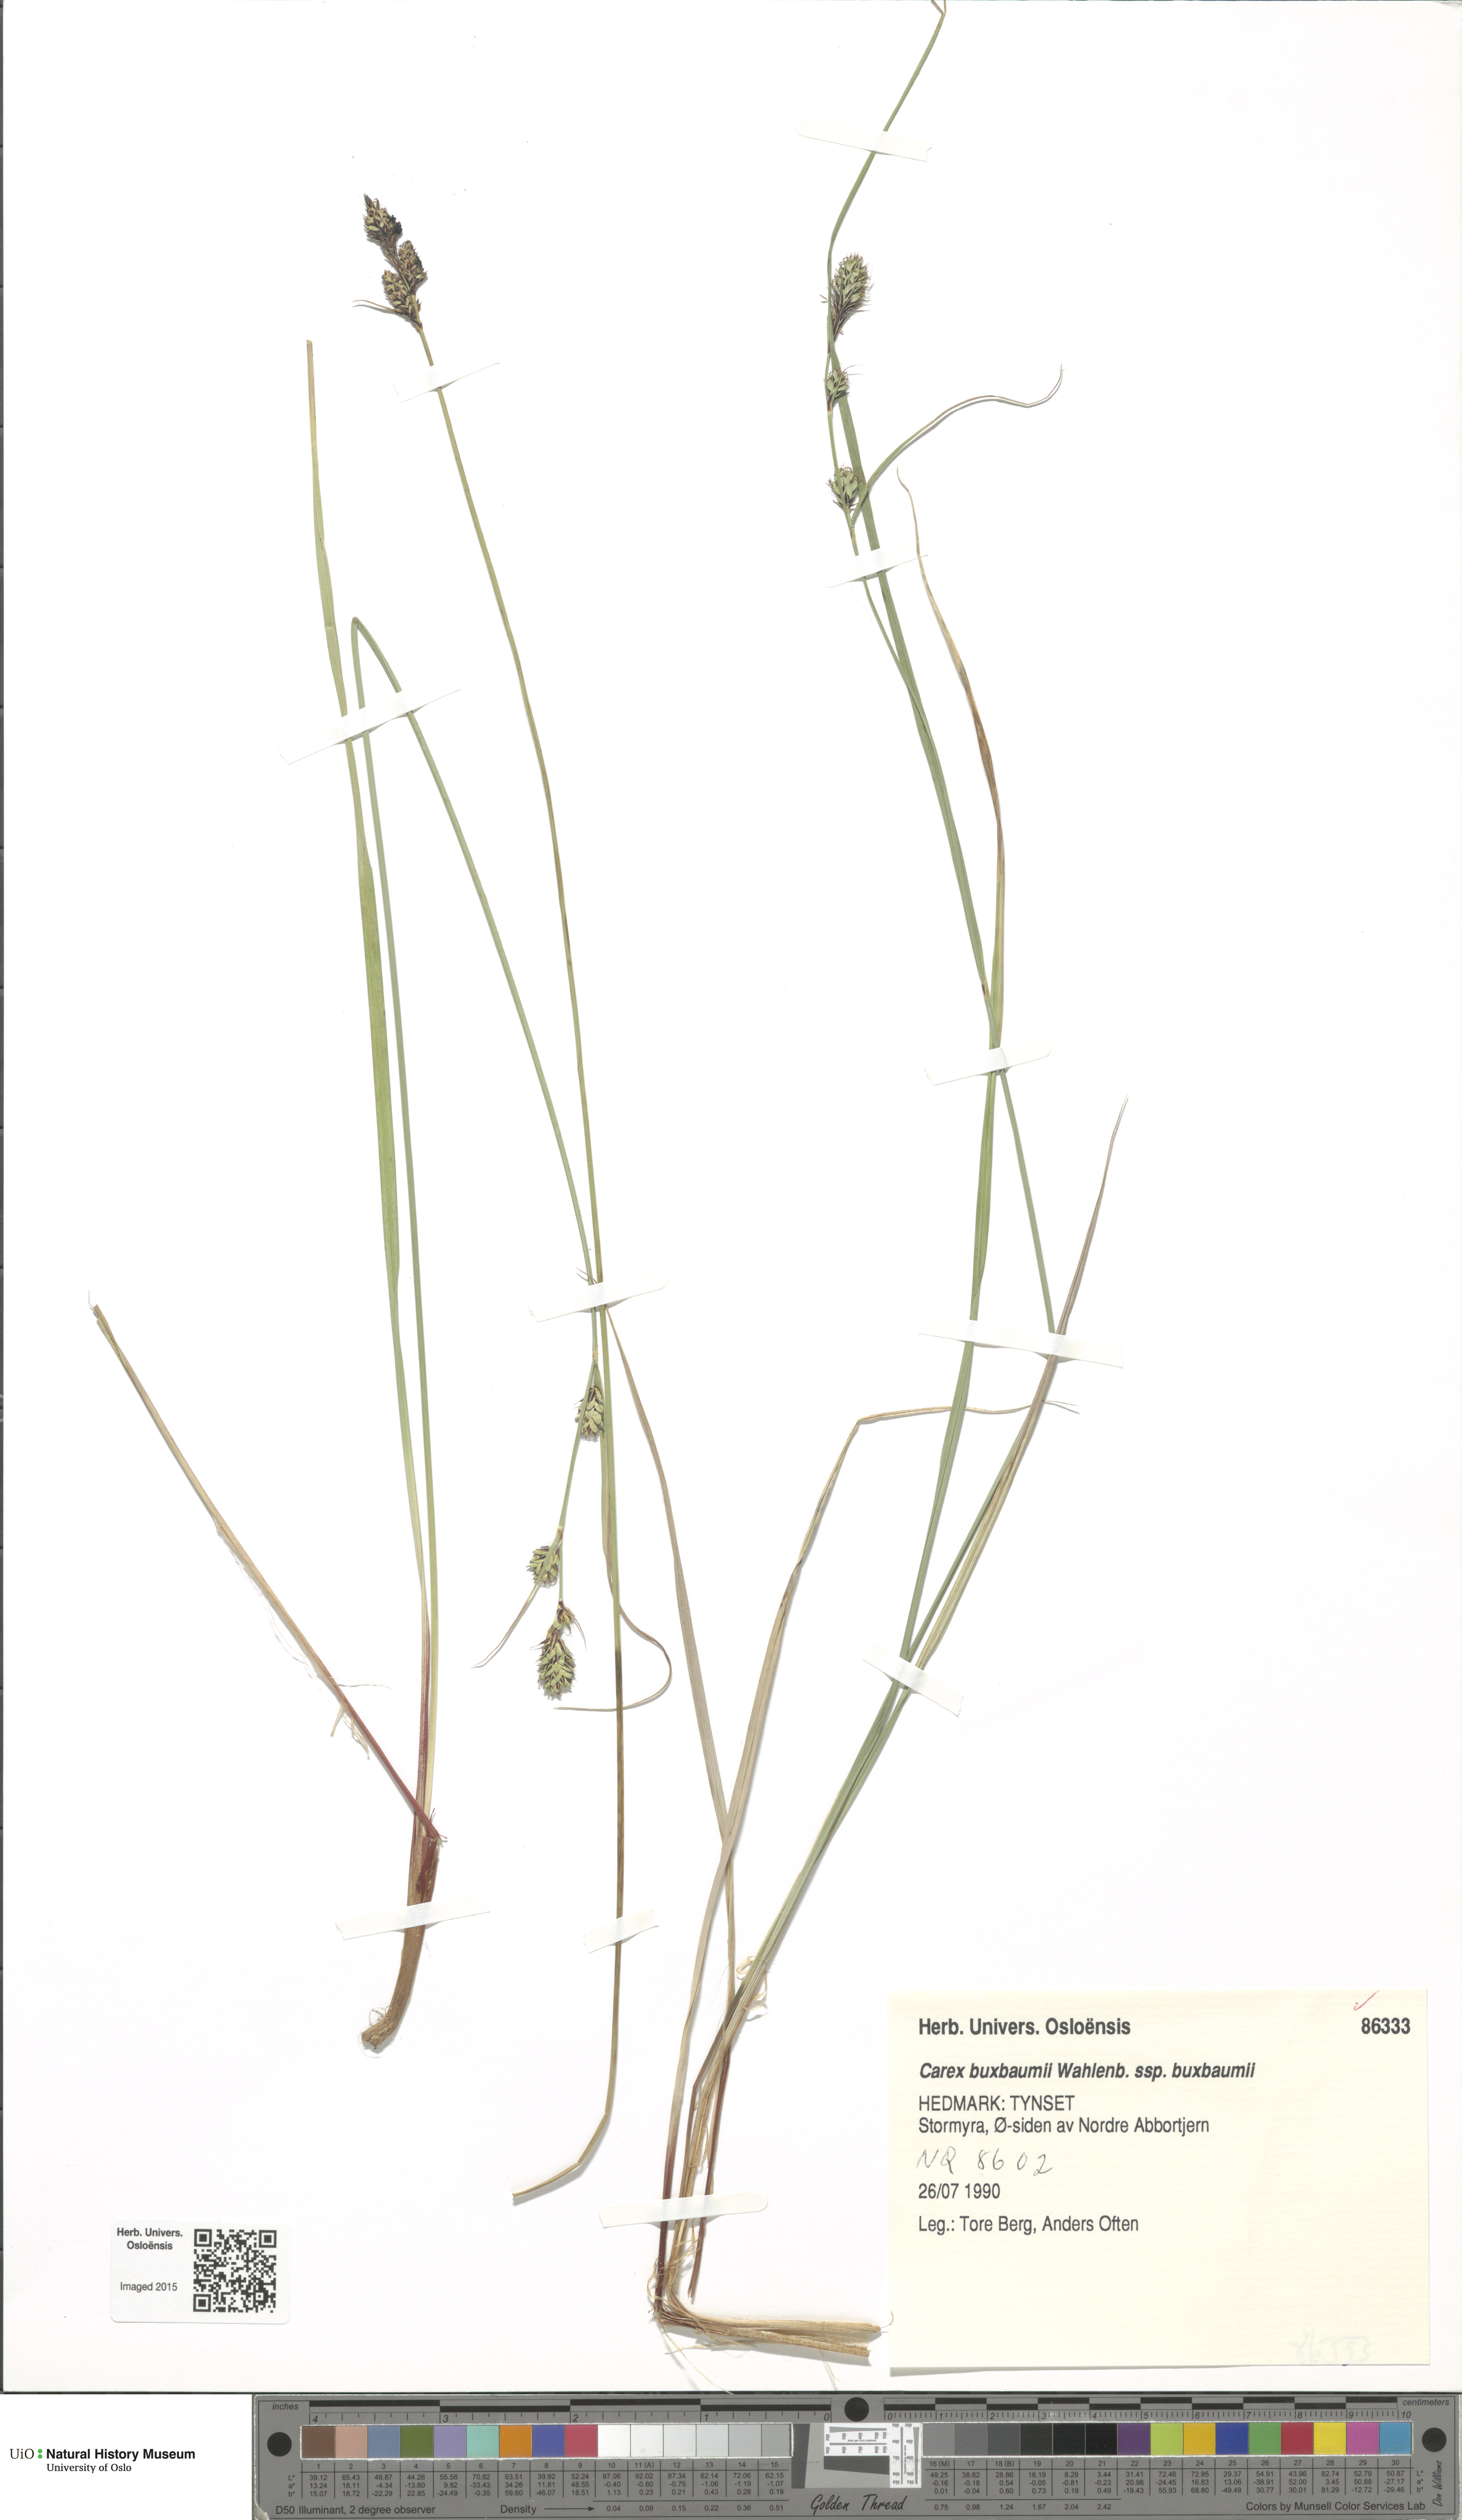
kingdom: Plantae
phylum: Tracheophyta
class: Liliopsida
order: Poales
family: Cyperaceae
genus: Carex
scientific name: Carex buxbaumii
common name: Club sedge
